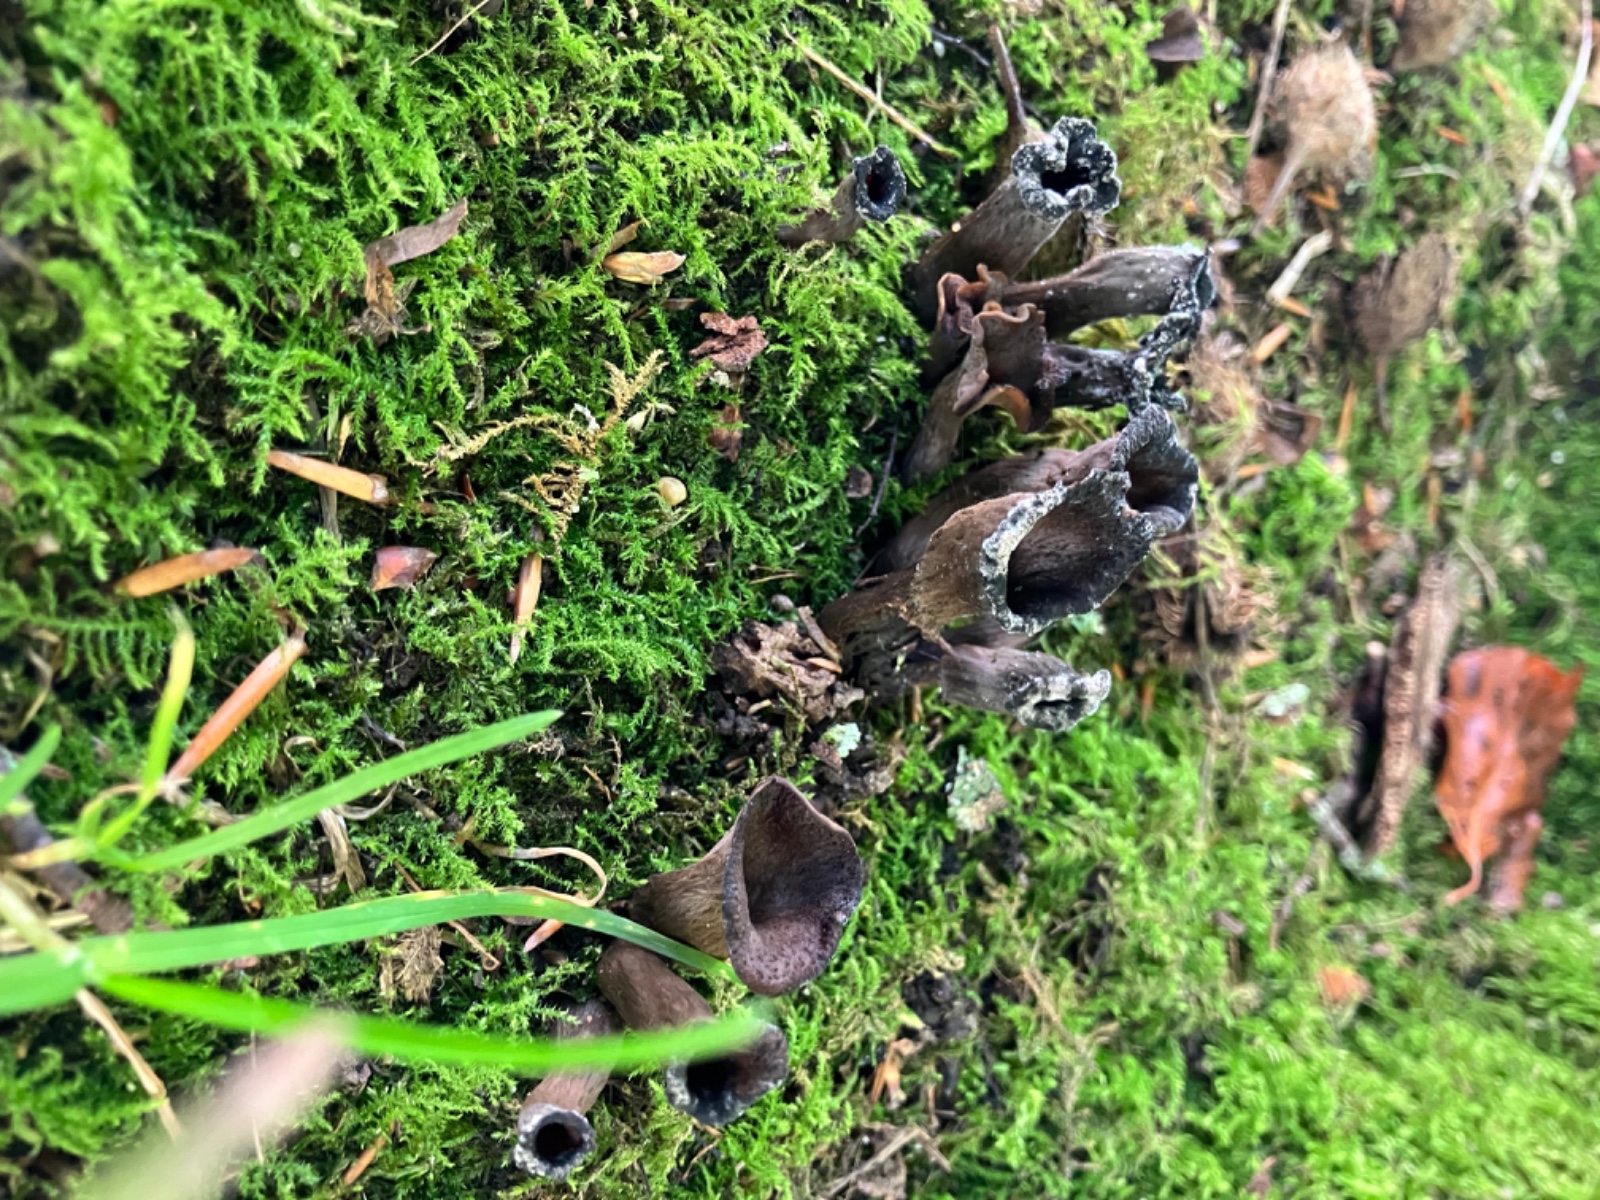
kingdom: Fungi
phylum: Basidiomycota
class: Agaricomycetes
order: Cantharellales
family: Hydnaceae
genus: Craterellus
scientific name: Craterellus cornucopioides
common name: trompetsvamp
